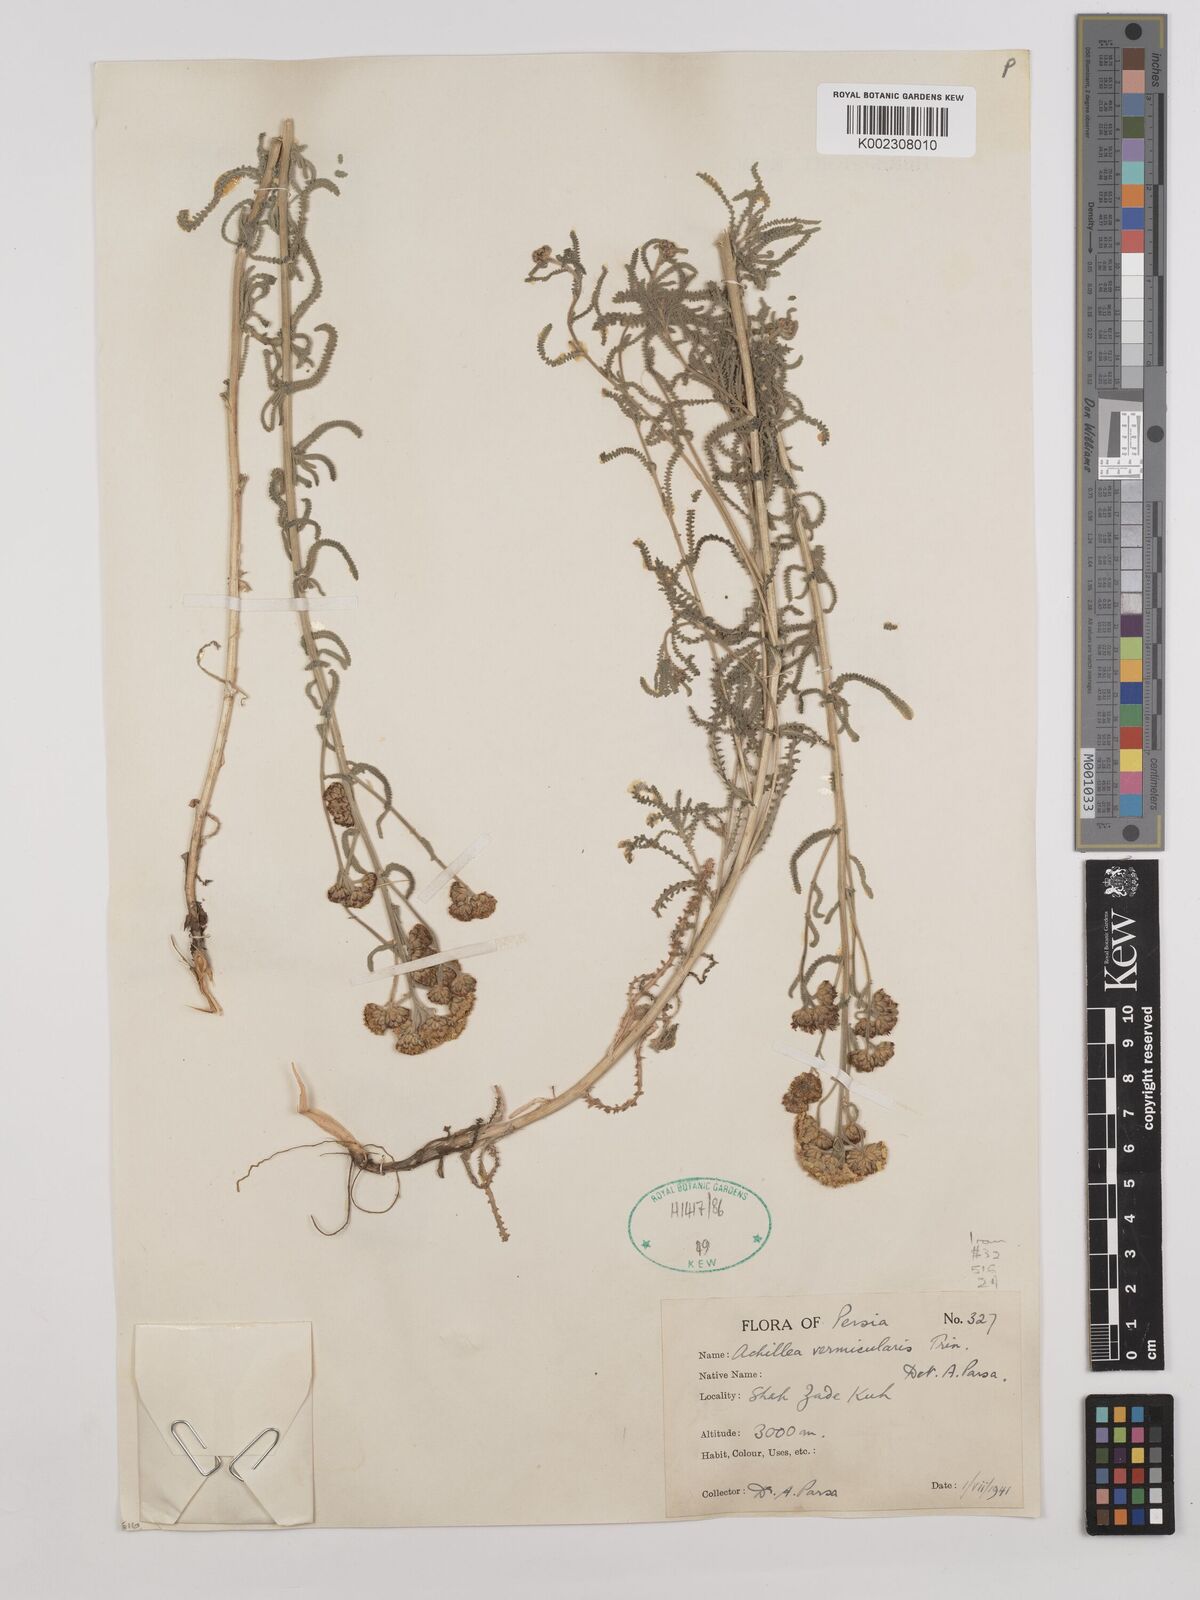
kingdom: Plantae
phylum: Tracheophyta
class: Magnoliopsida
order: Asterales
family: Asteraceae
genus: Achillea
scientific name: Achillea vermicularis
